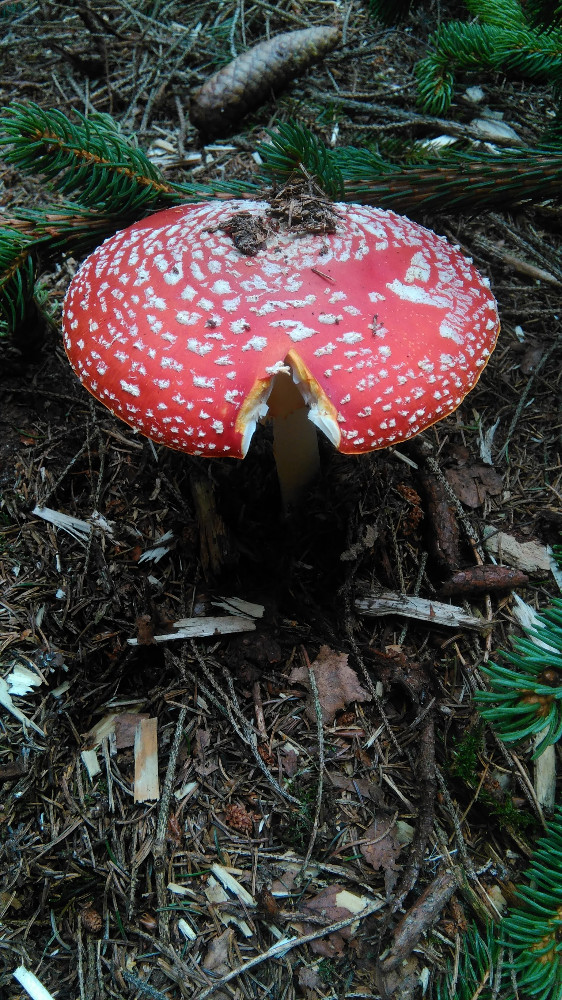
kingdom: Fungi
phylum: Basidiomycota
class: Agaricomycetes
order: Agaricales
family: Amanitaceae
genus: Amanita
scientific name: Amanita muscaria
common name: rød fluesvamp
